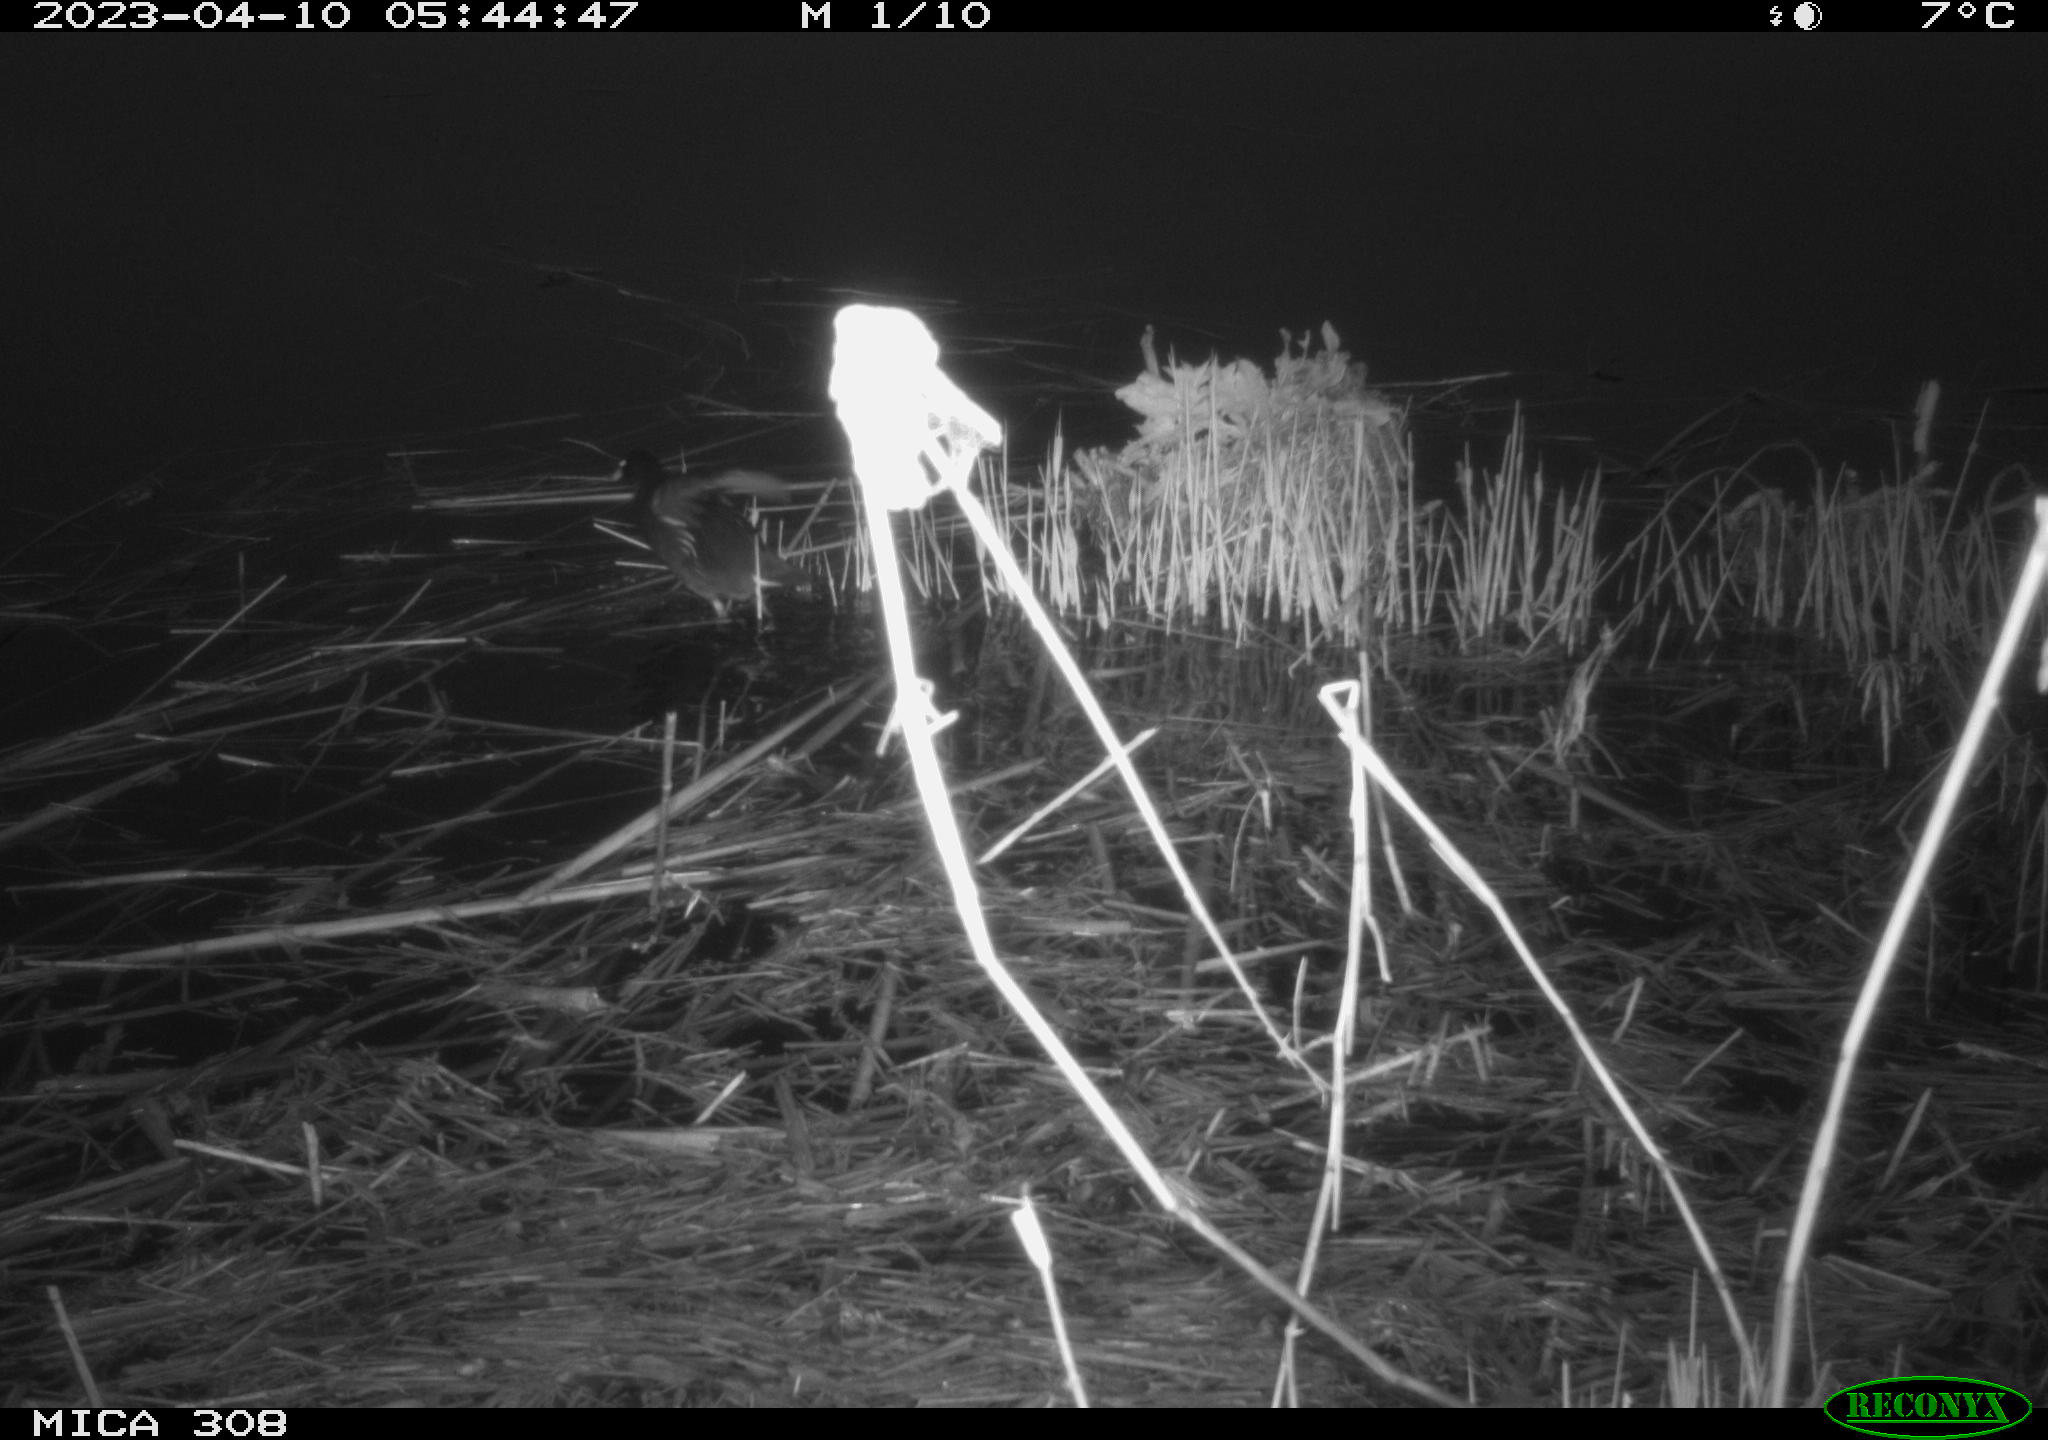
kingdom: Animalia
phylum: Chordata
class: Aves
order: Anseriformes
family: Anatidae
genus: Anas
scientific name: Anas
